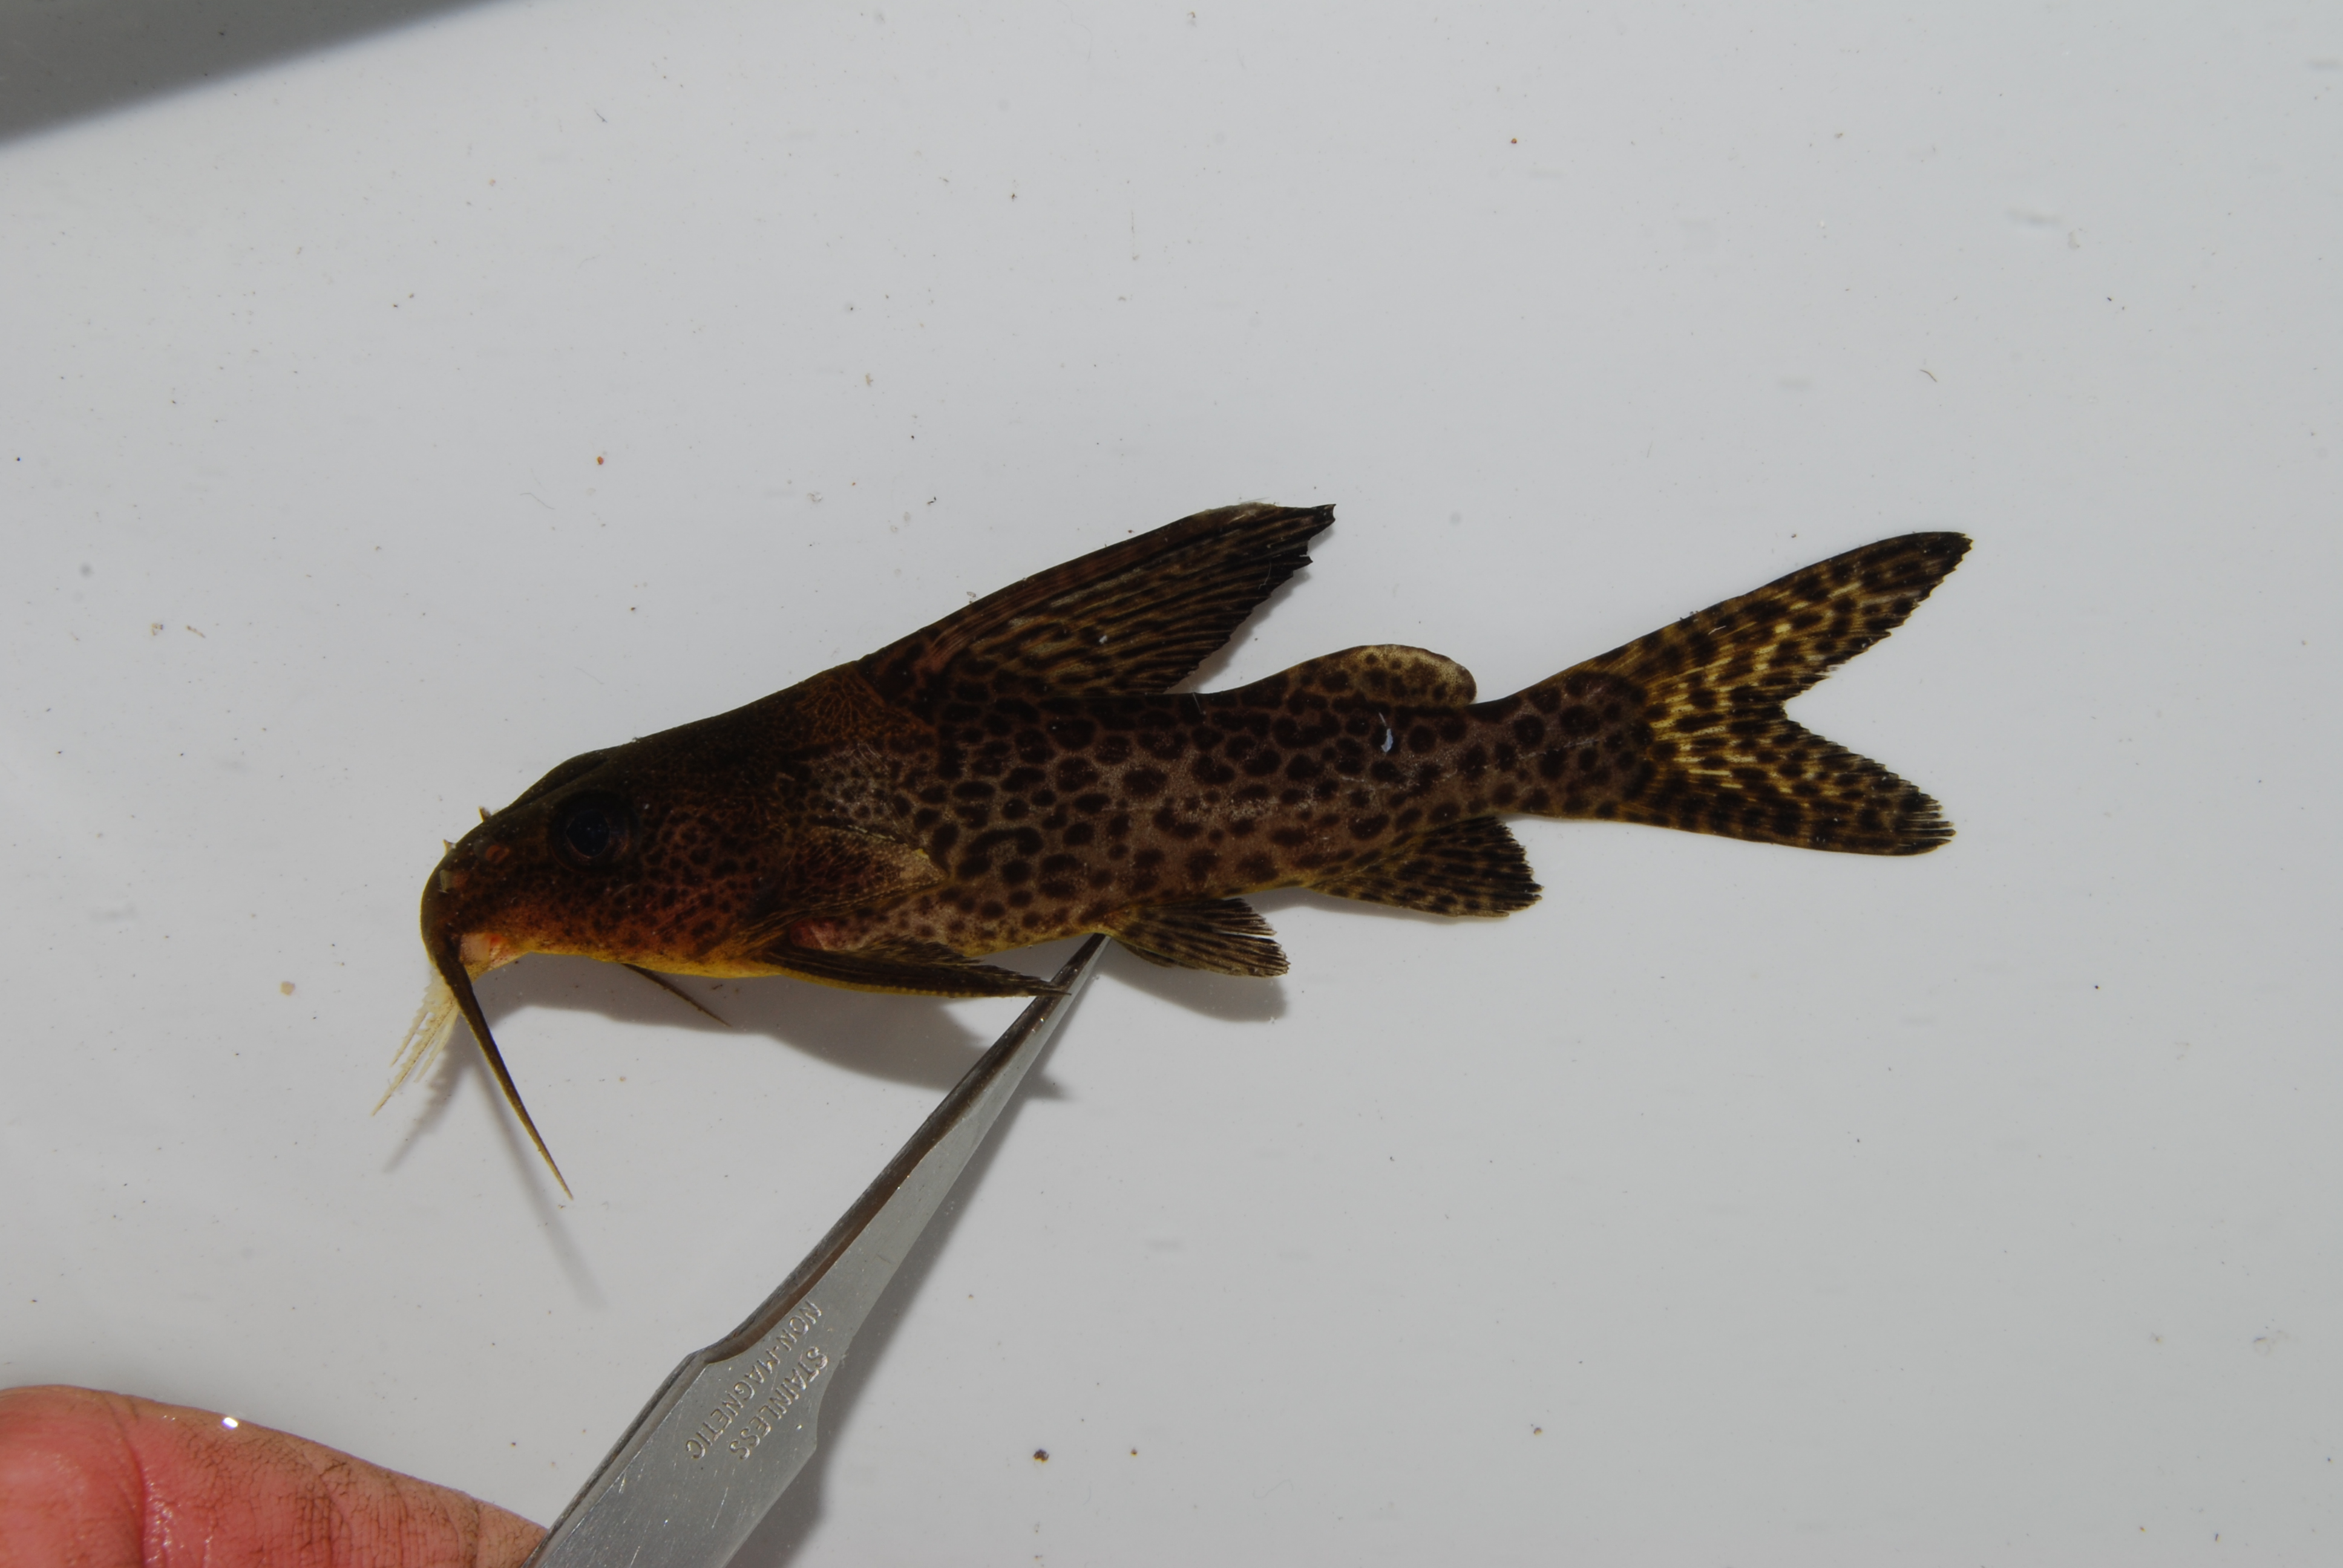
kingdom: Animalia
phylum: Chordata
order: Siluriformes
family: Mochokidae
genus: Synodontis
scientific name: Synodontis
